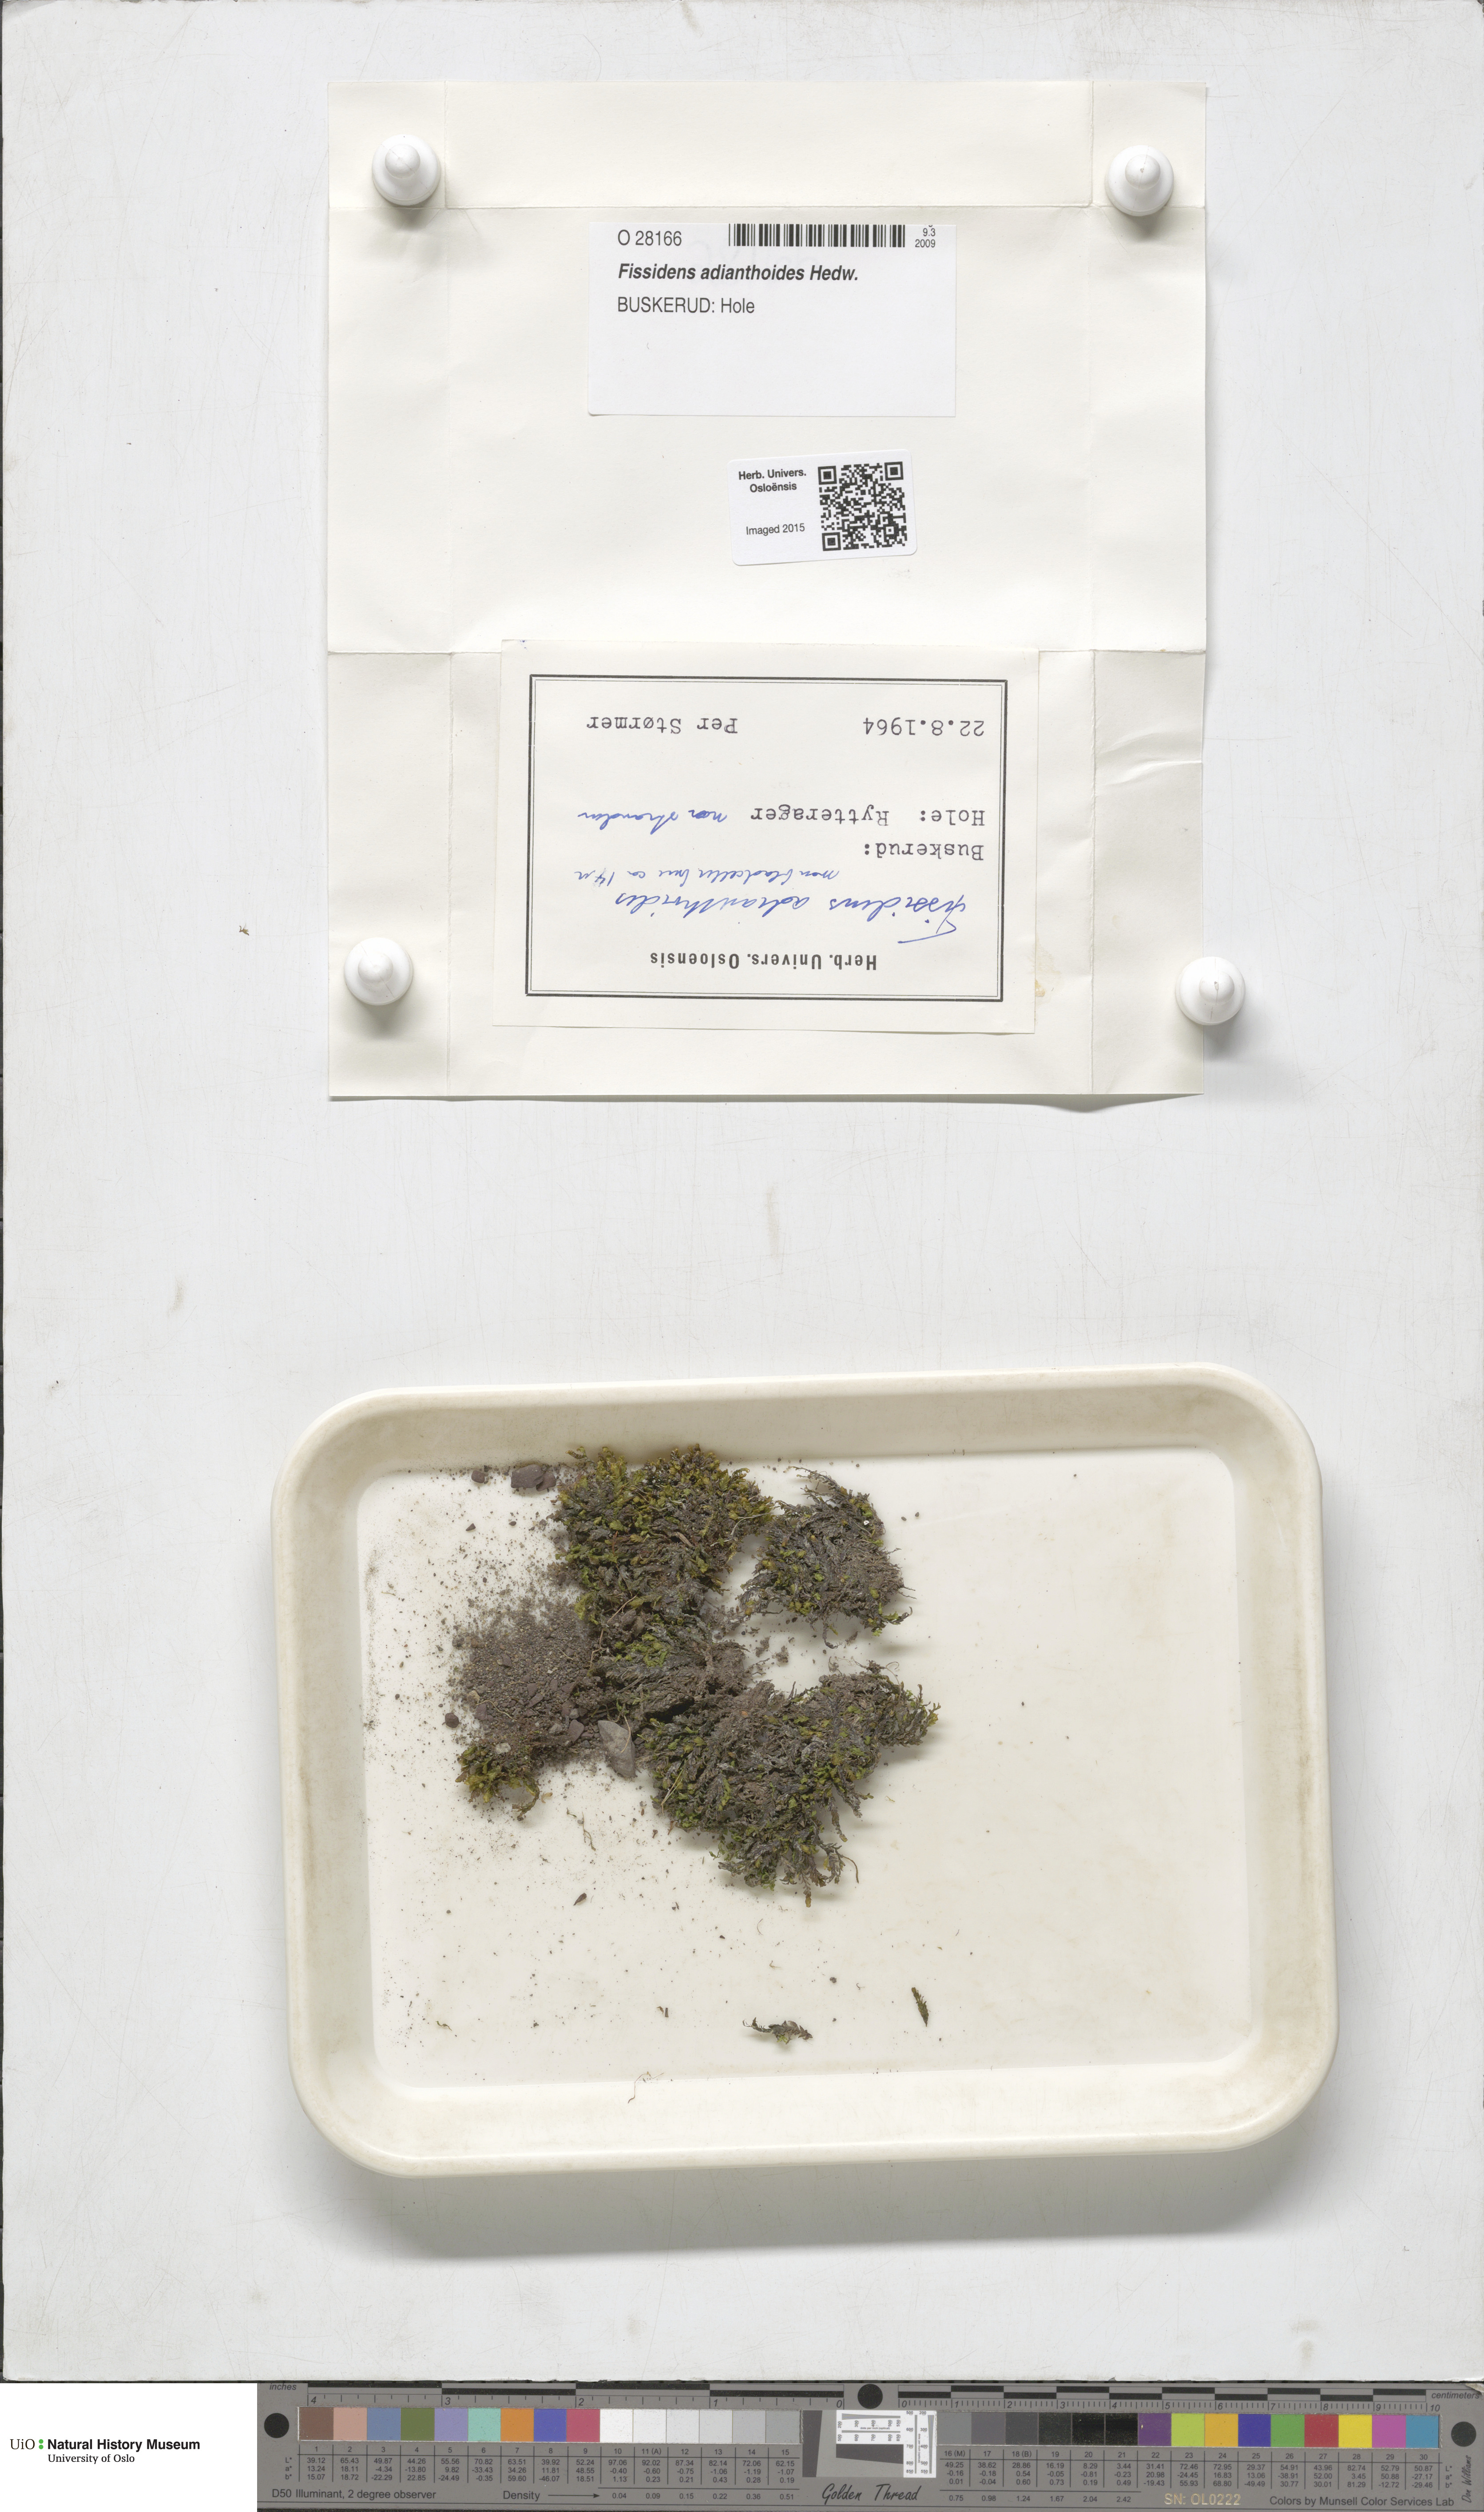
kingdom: Plantae
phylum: Bryophyta
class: Bryopsida
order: Dicranales
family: Fissidentaceae
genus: Fissidens
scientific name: Fissidens adianthoides
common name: Maidenhair pocket moss
